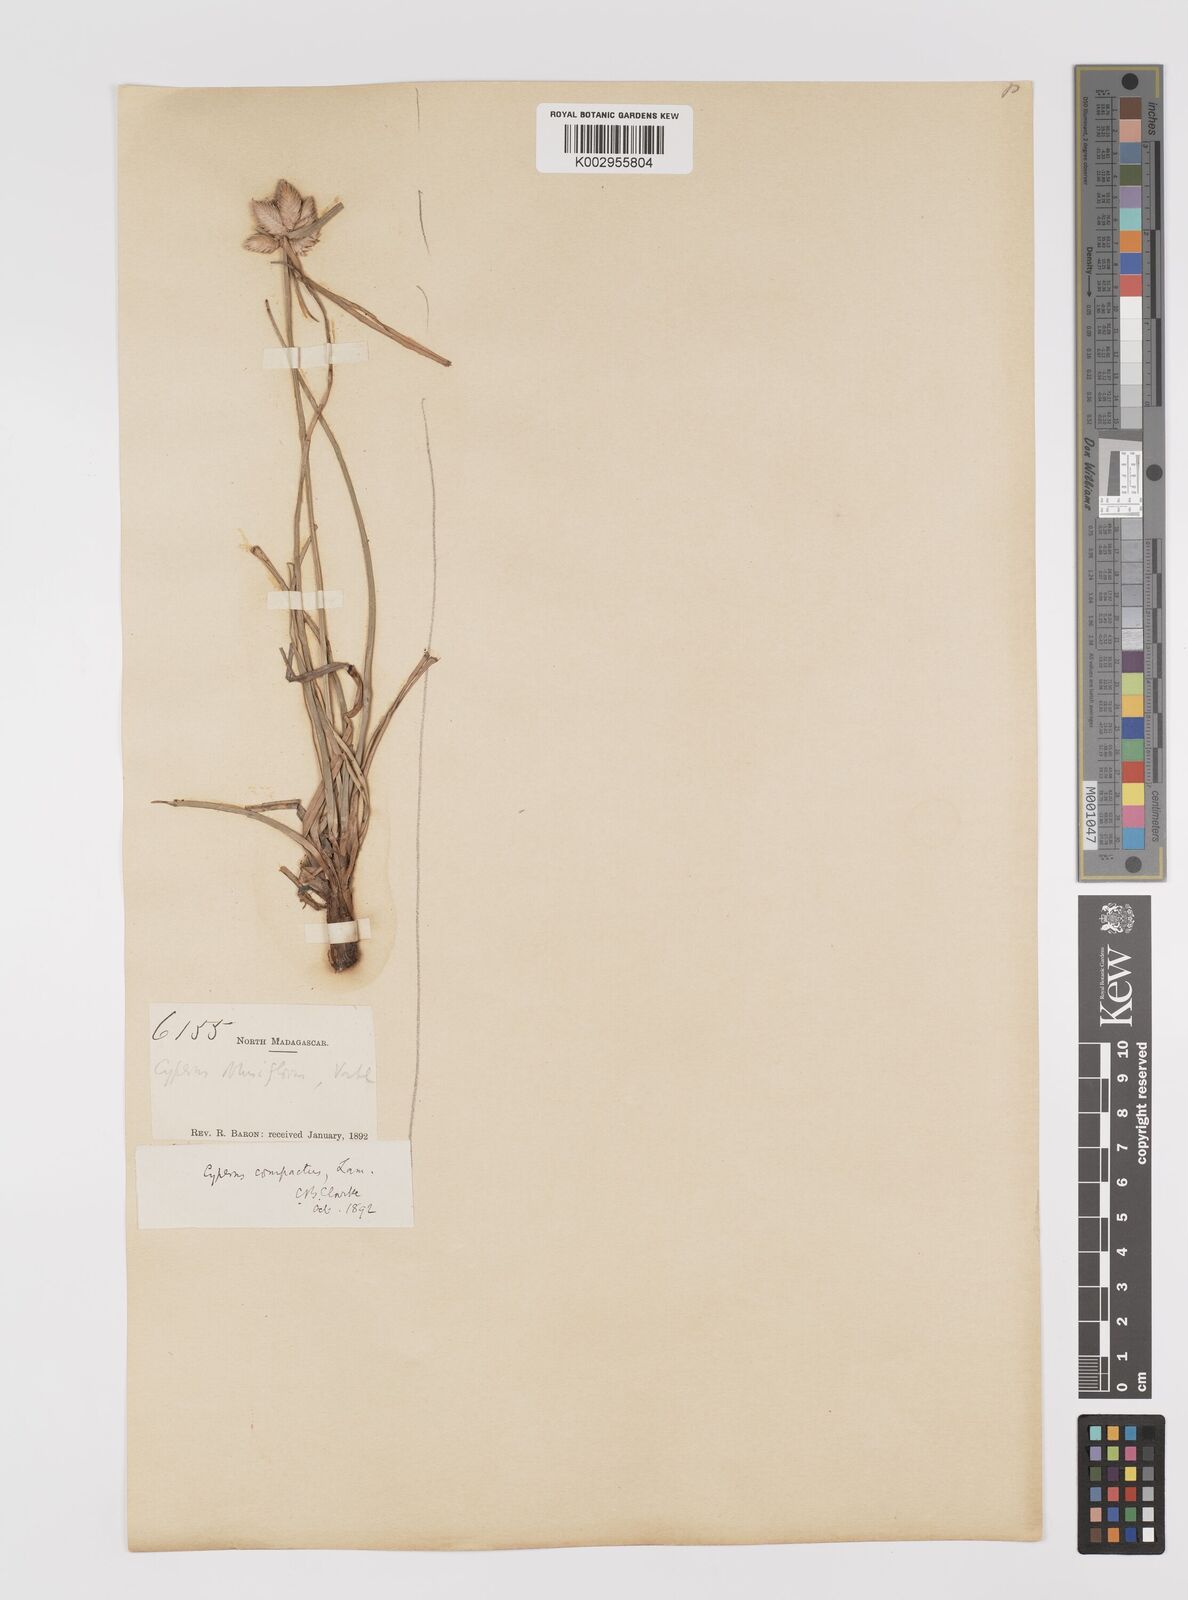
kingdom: Plantae
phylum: Tracheophyta
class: Liliopsida
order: Poales
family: Cyperaceae
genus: Cyperus
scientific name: Cyperus niveus
